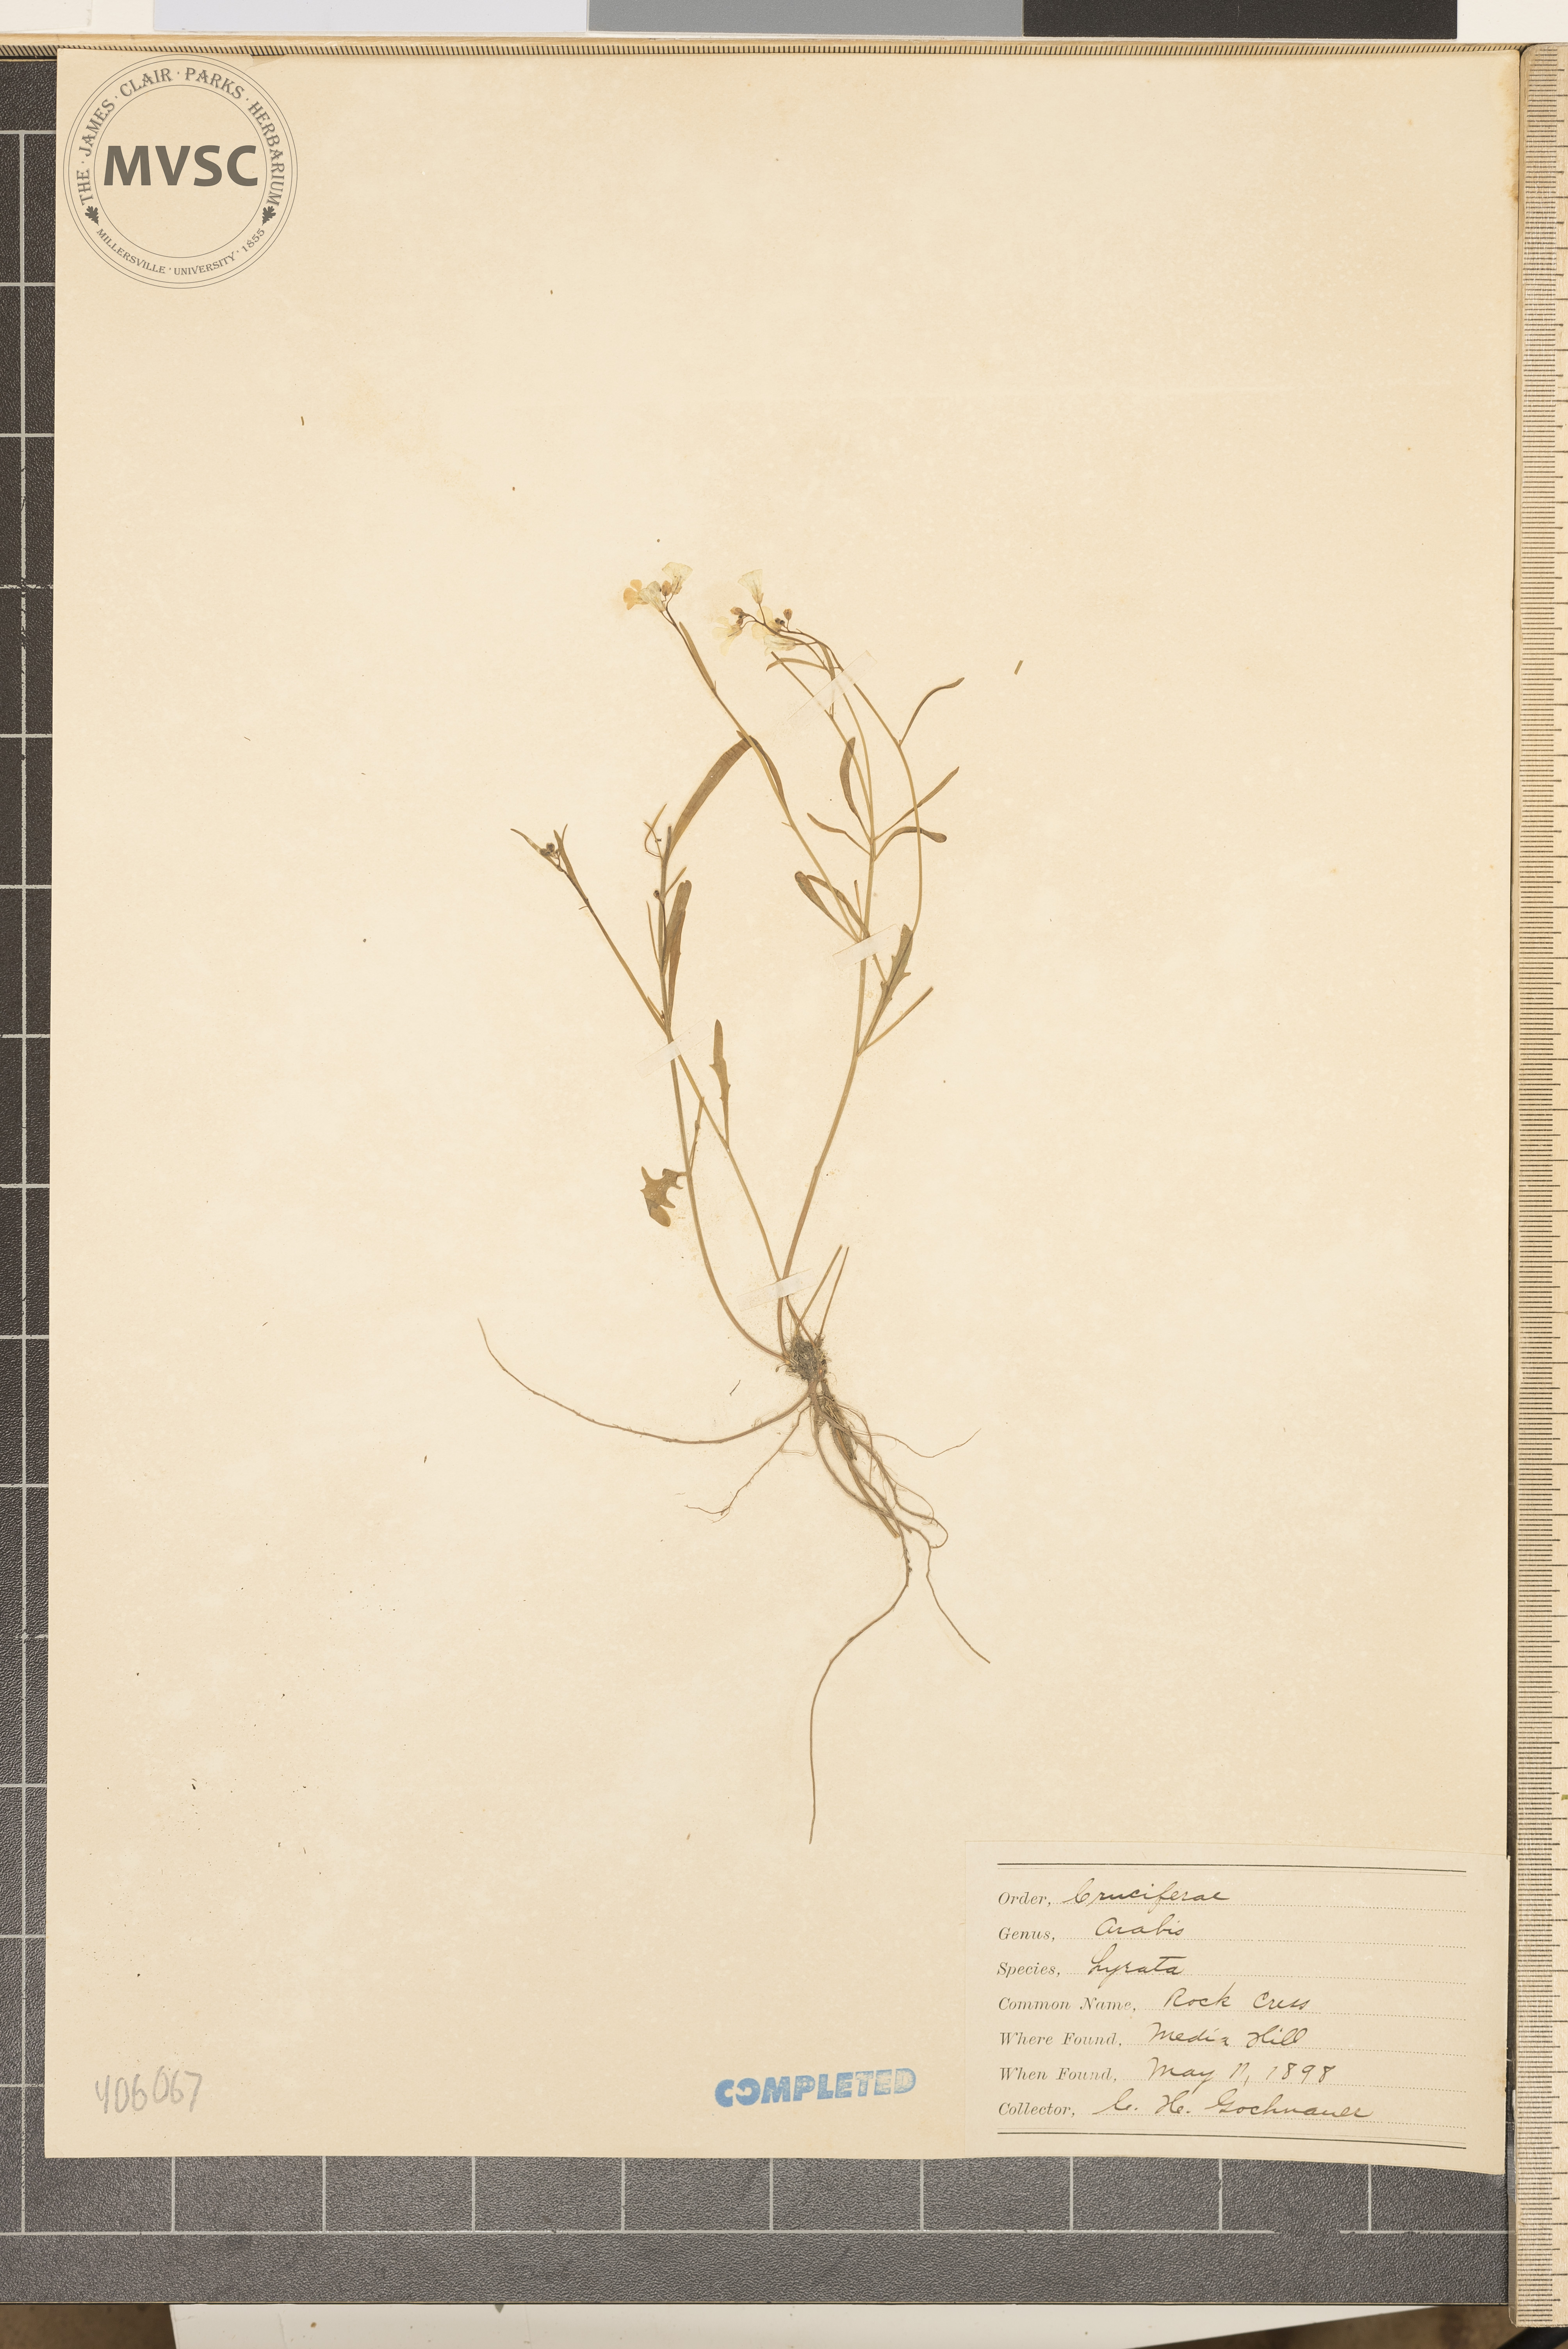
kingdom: Plantae
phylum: Tracheophyta
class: Magnoliopsida
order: Brassicales
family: Brassicaceae
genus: Arabidopsis
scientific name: Arabidopsis lyrata
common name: Lyrate rockcress
